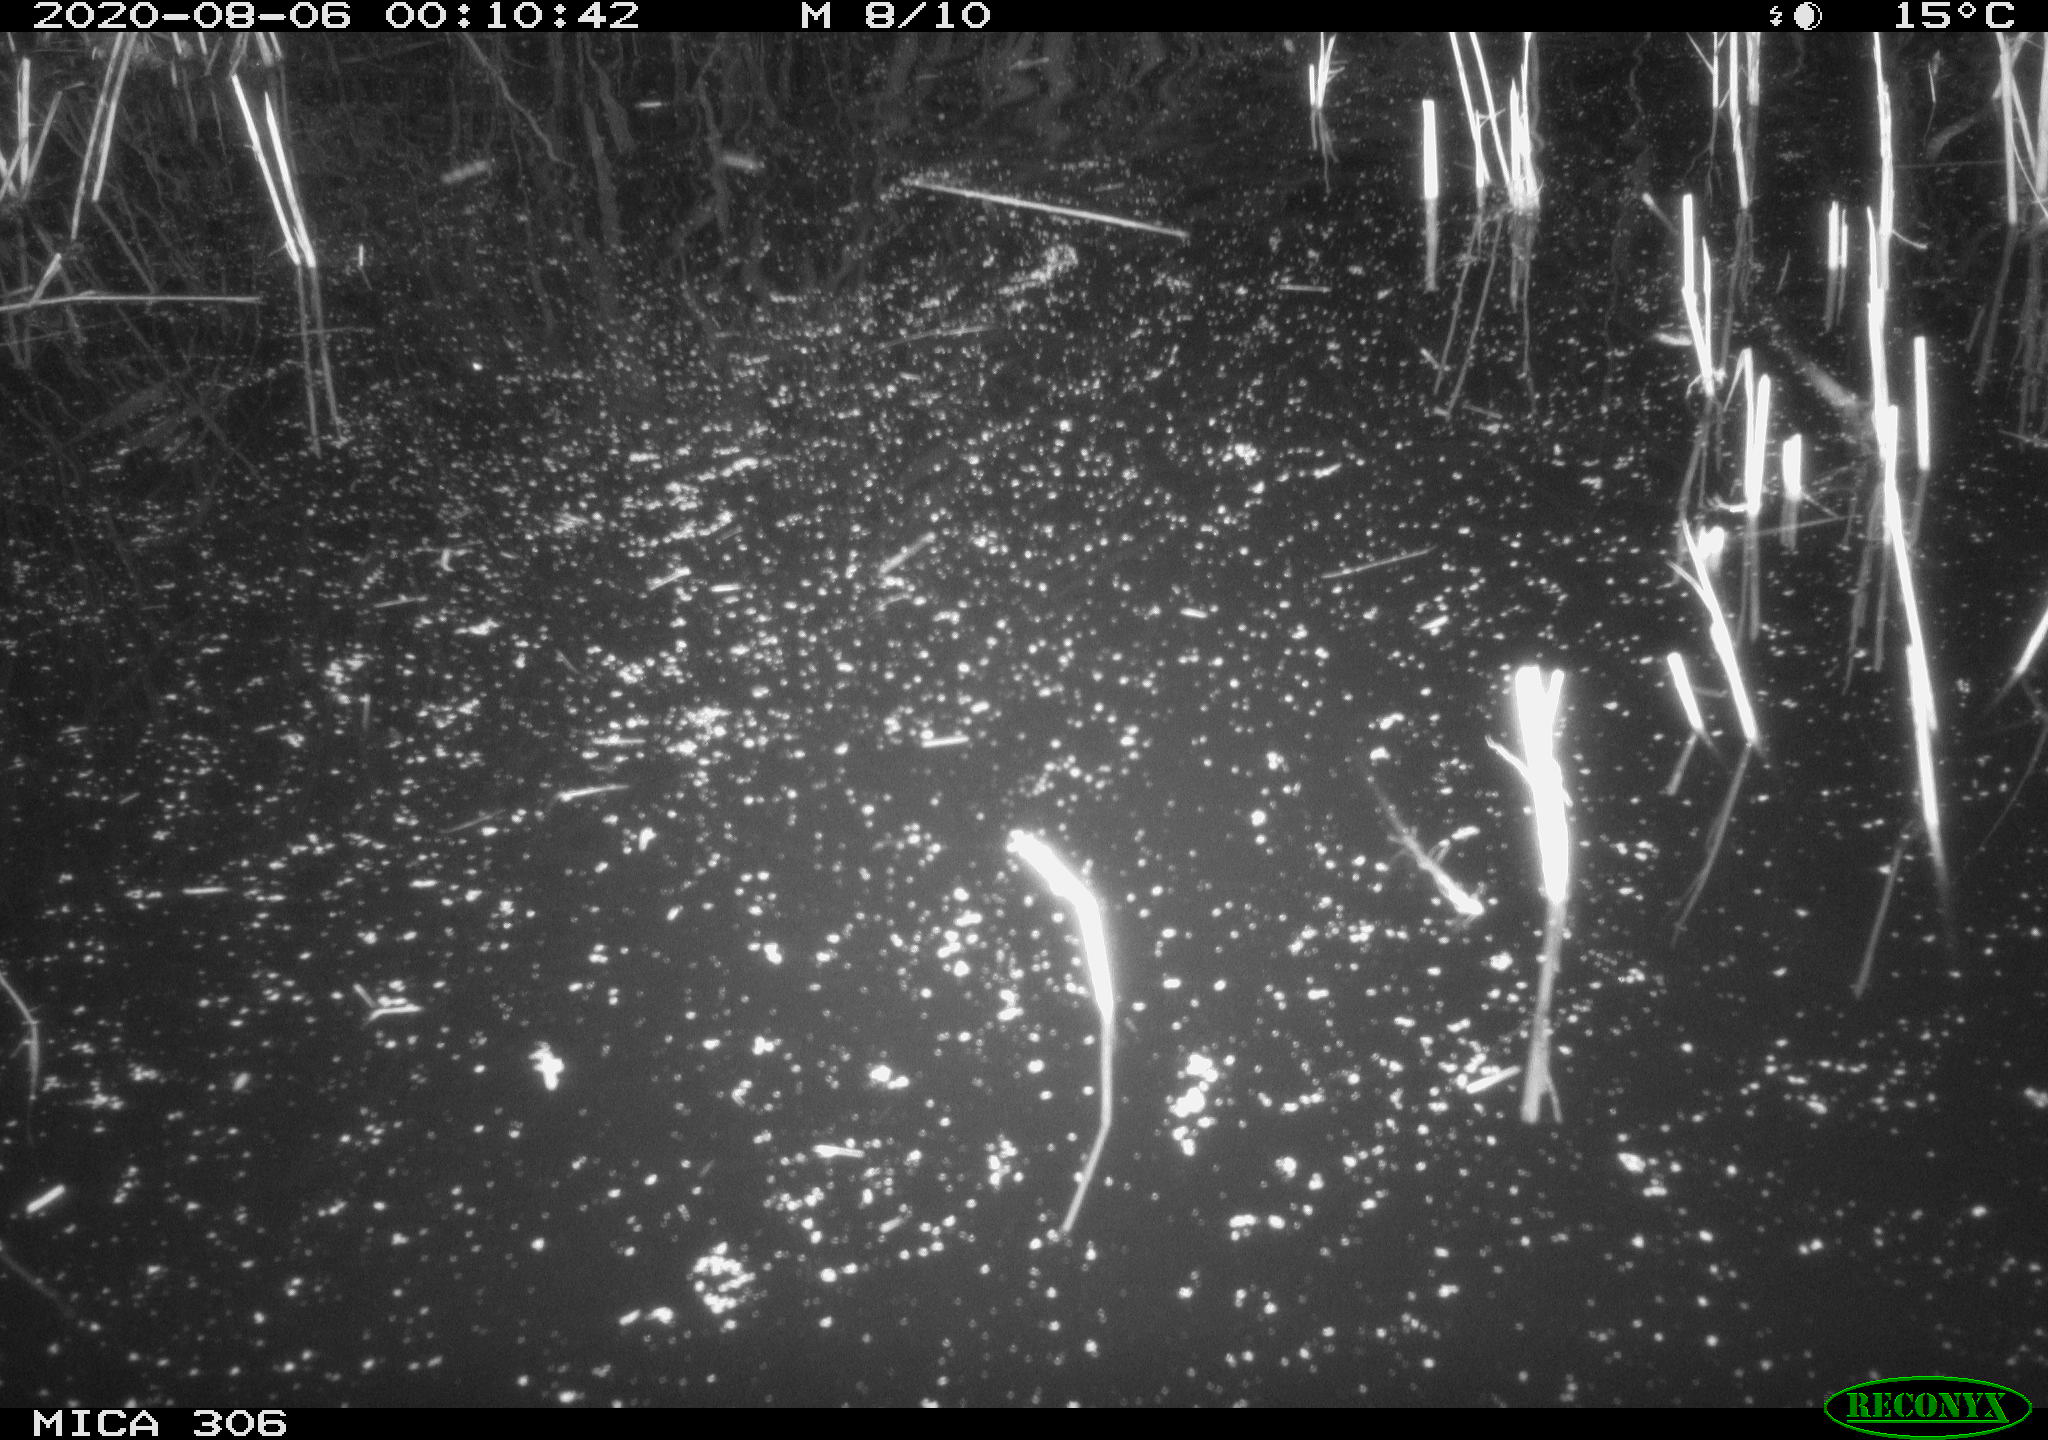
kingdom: Animalia
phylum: Chordata
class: Mammalia
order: Rodentia
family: Muridae
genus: Rattus
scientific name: Rattus norvegicus
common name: Brown rat
